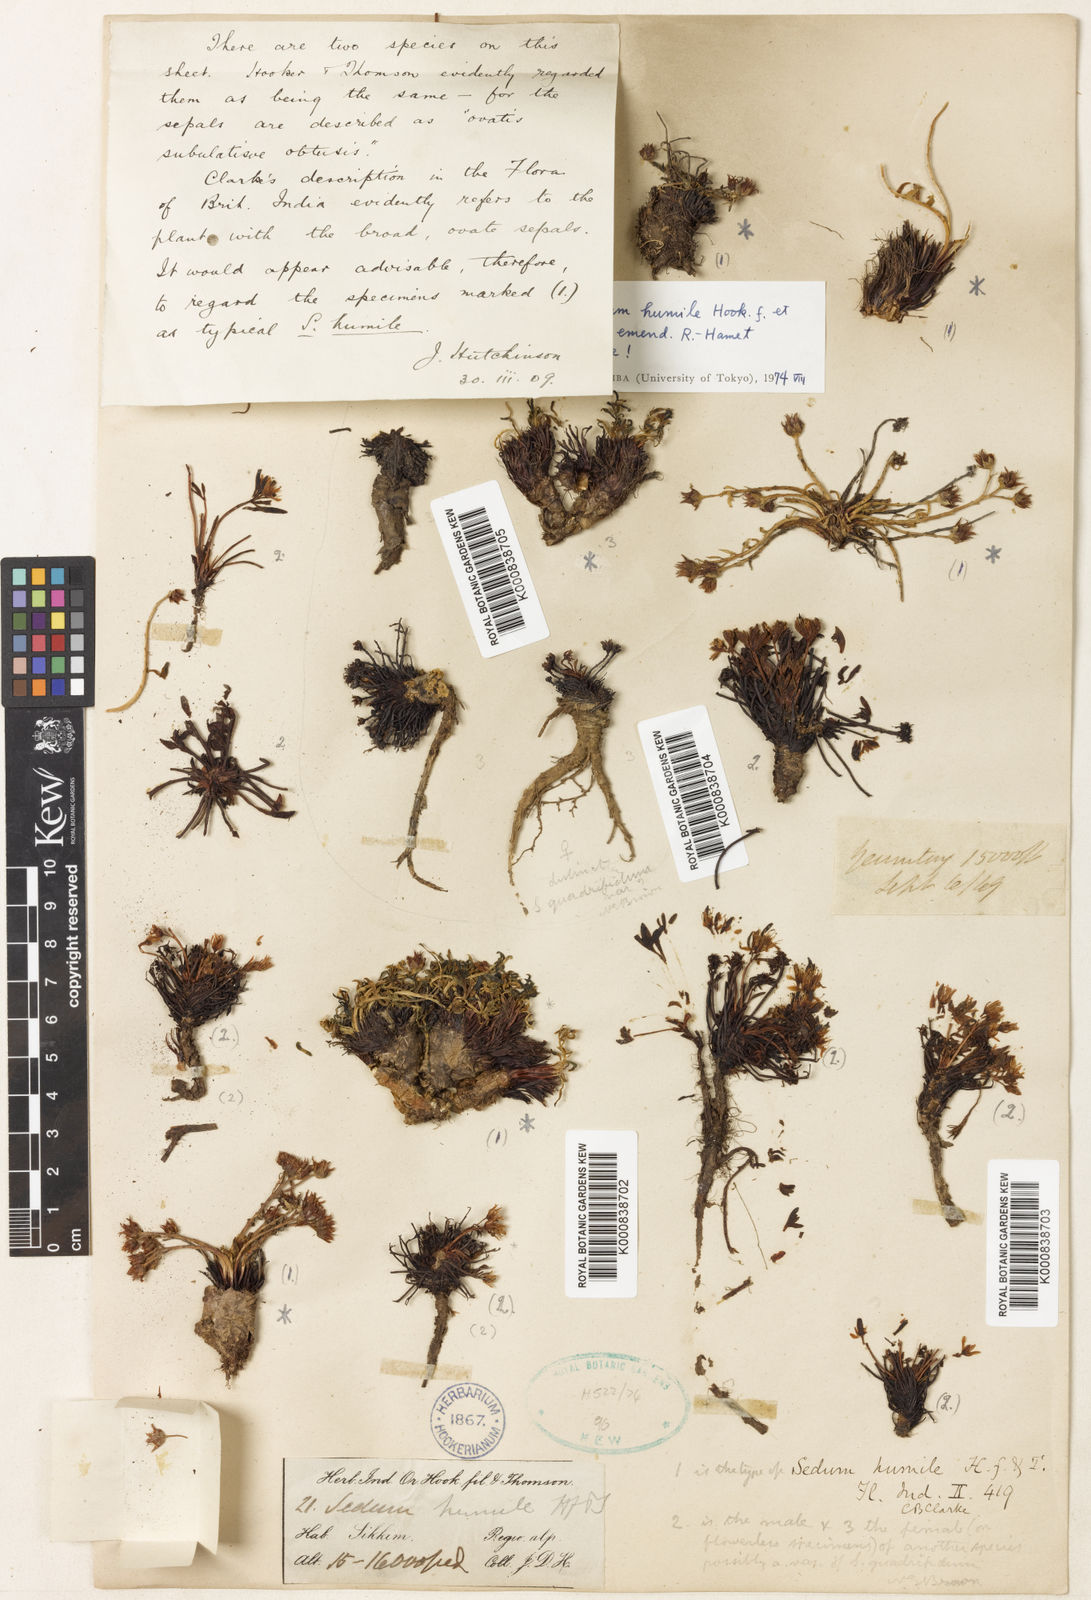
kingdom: Plantae
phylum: Tracheophyta
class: Magnoliopsida
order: Saxifragales
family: Crassulaceae
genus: Rhodiola
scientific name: Rhodiola humilis
